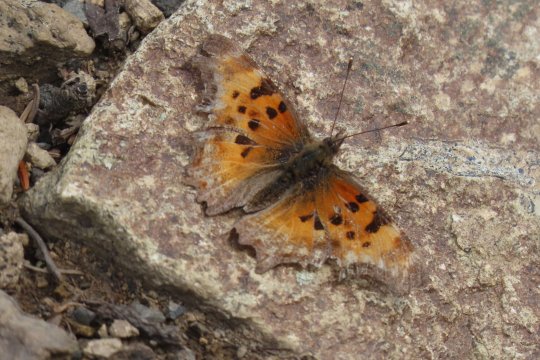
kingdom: Animalia
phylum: Arthropoda
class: Insecta
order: Lepidoptera
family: Nymphalidae
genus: Polygonia
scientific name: Polygonia gracilis
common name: Hoary Comma
